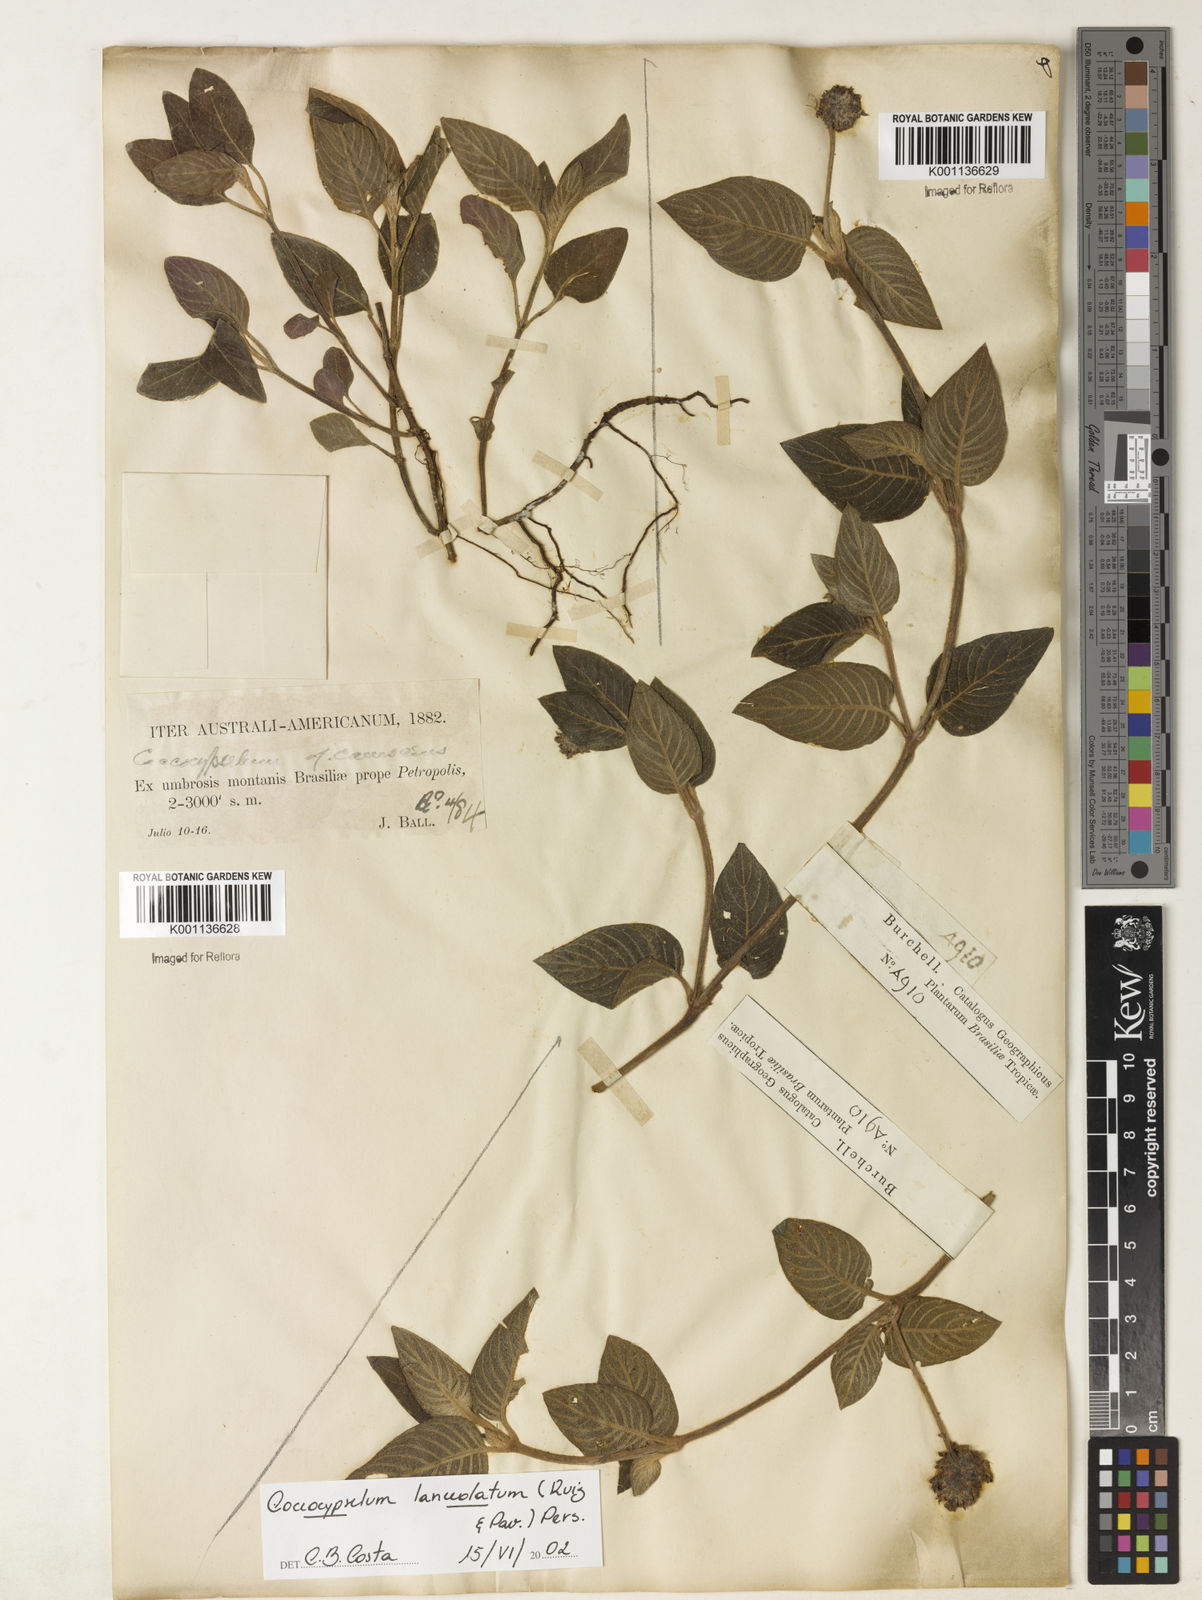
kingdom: Plantae
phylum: Tracheophyta
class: Magnoliopsida
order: Gentianales
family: Rubiaceae
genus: Coccocypselum
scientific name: Coccocypselum lanceolatum
